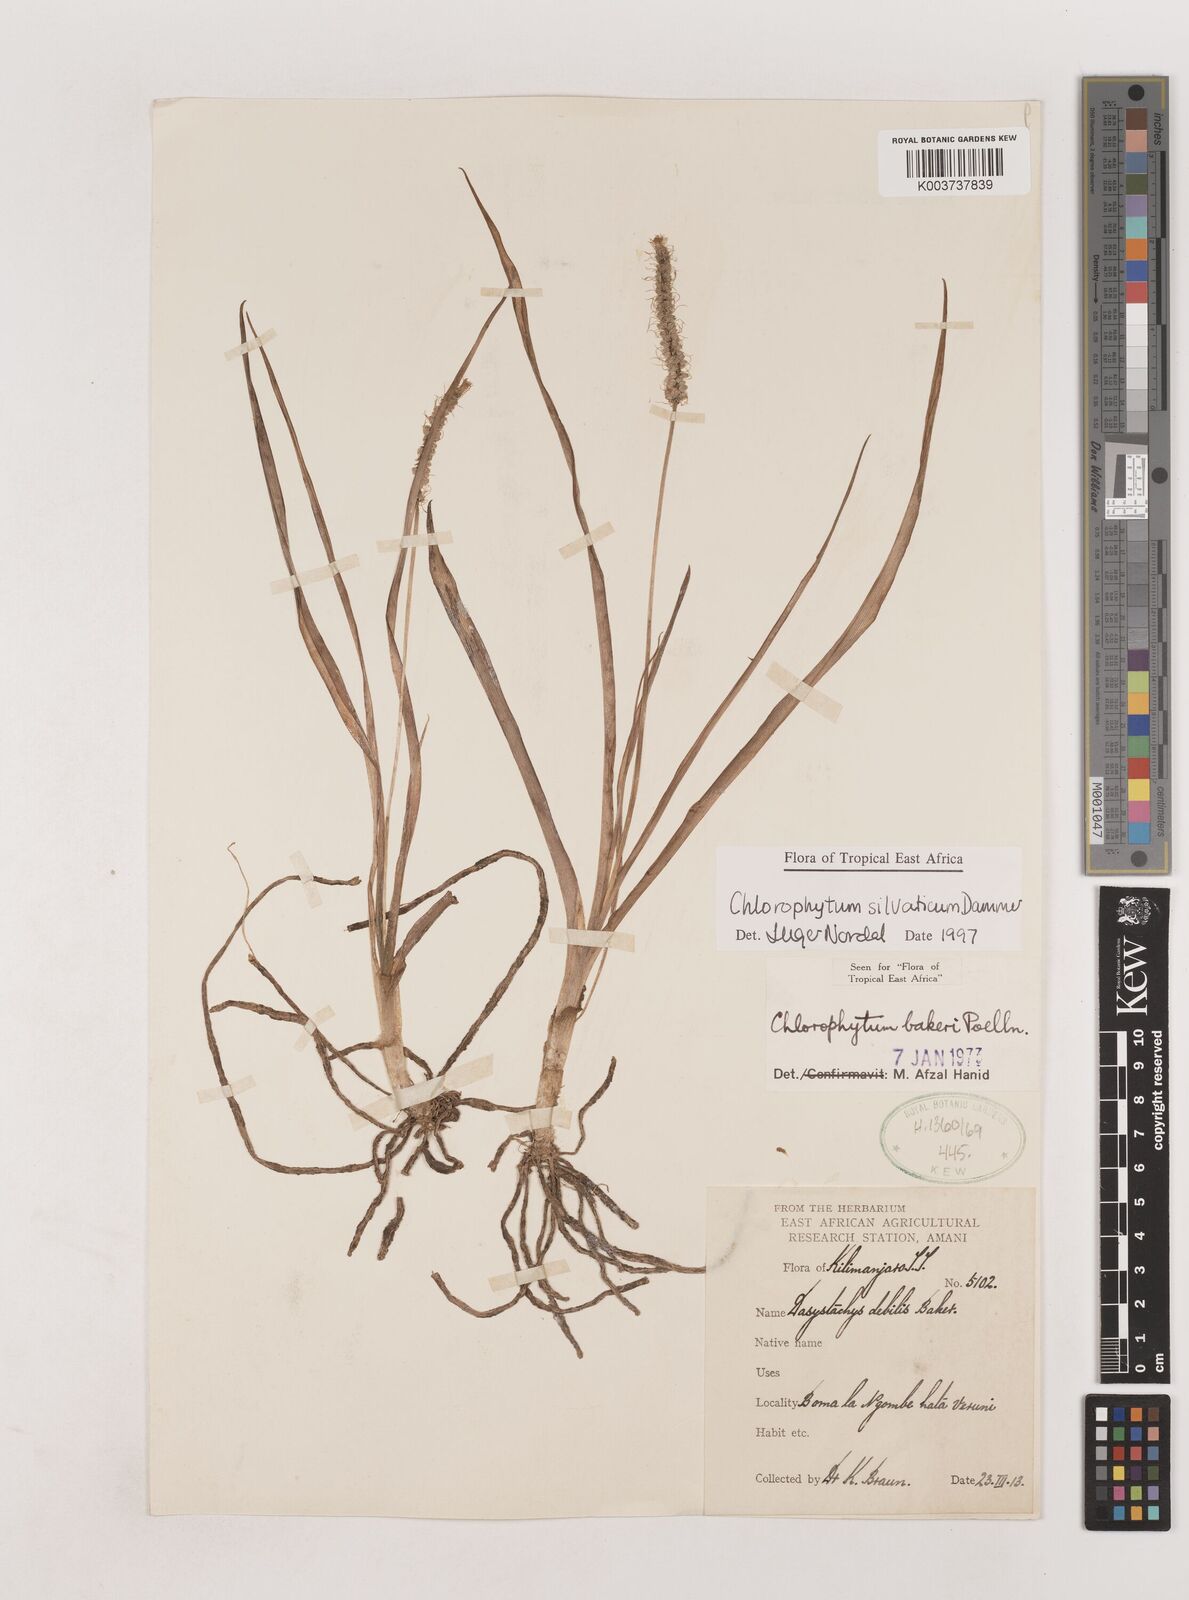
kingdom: Plantae
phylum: Tracheophyta
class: Liliopsida
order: Asparagales
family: Asparagaceae
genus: Chlorophytum
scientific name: Chlorophytum africanum
